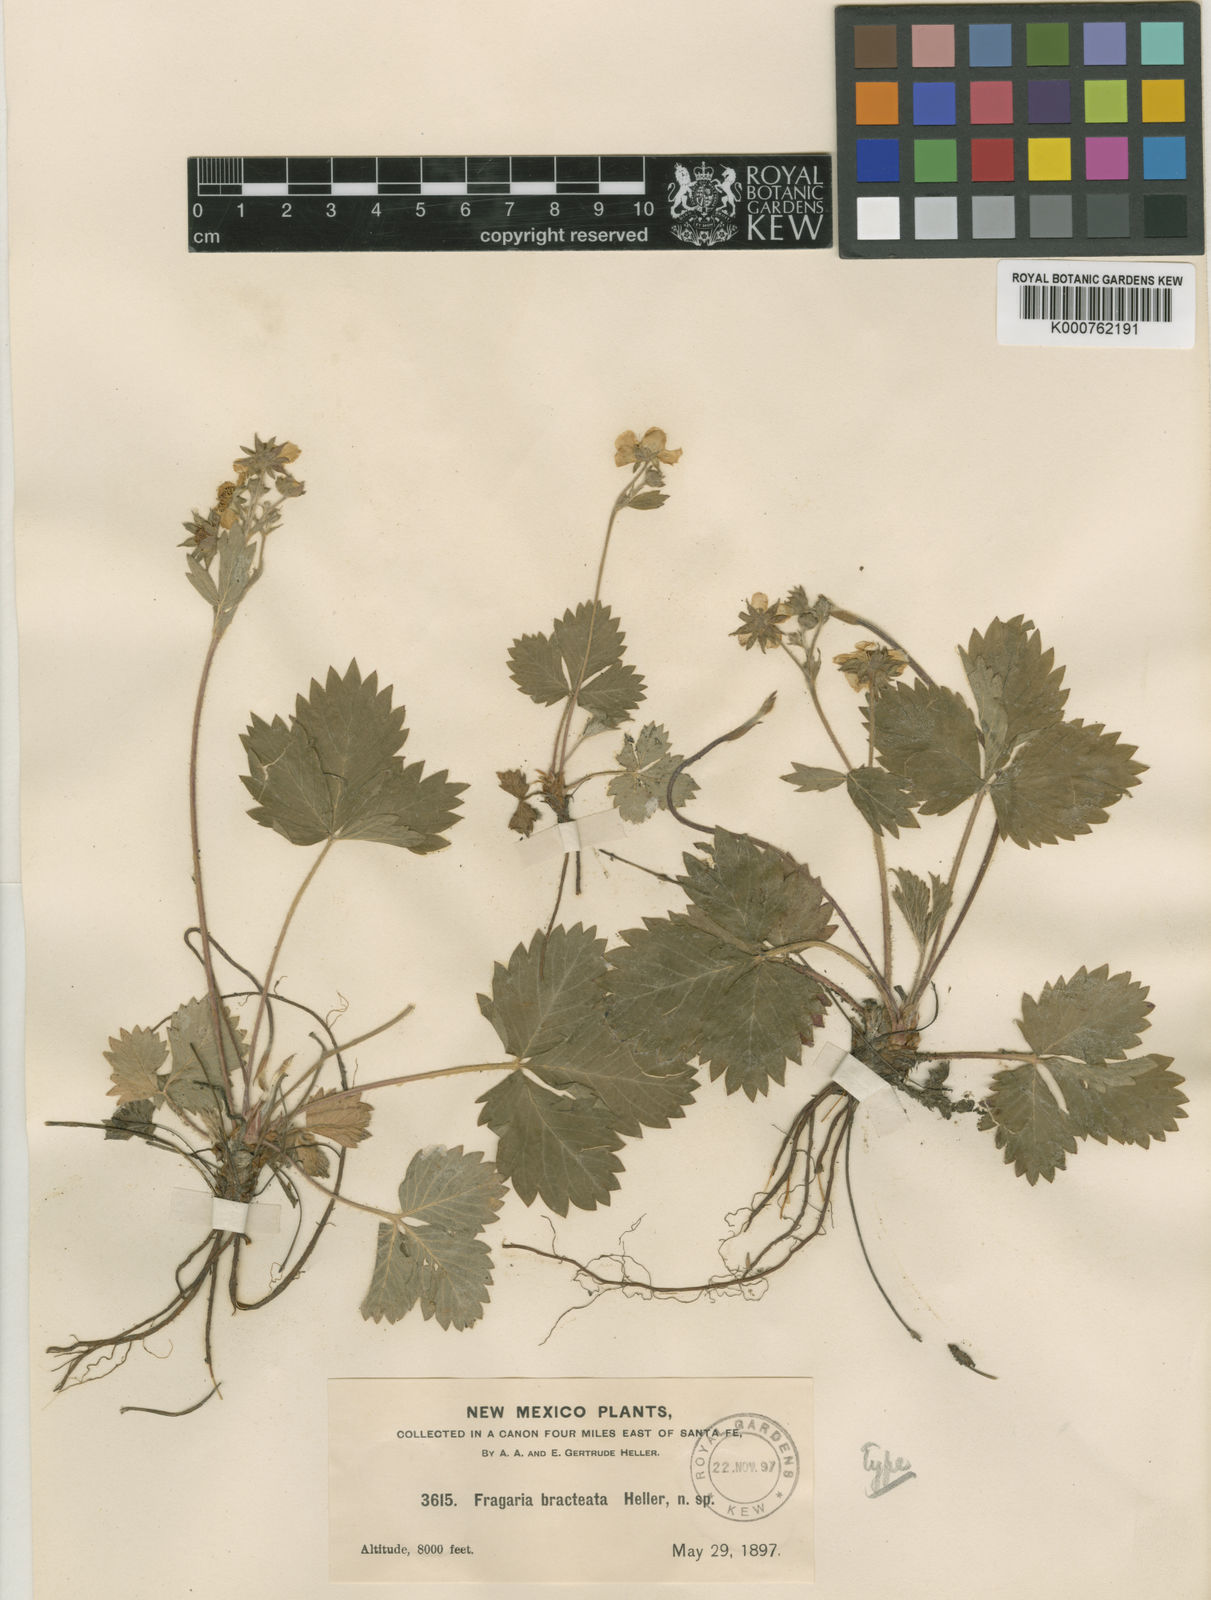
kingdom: Plantae
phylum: Tracheophyta
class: Magnoliopsida
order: Rosales
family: Rosaceae
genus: Fragaria
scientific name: Fragaria vesca
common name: Wild strawberry
